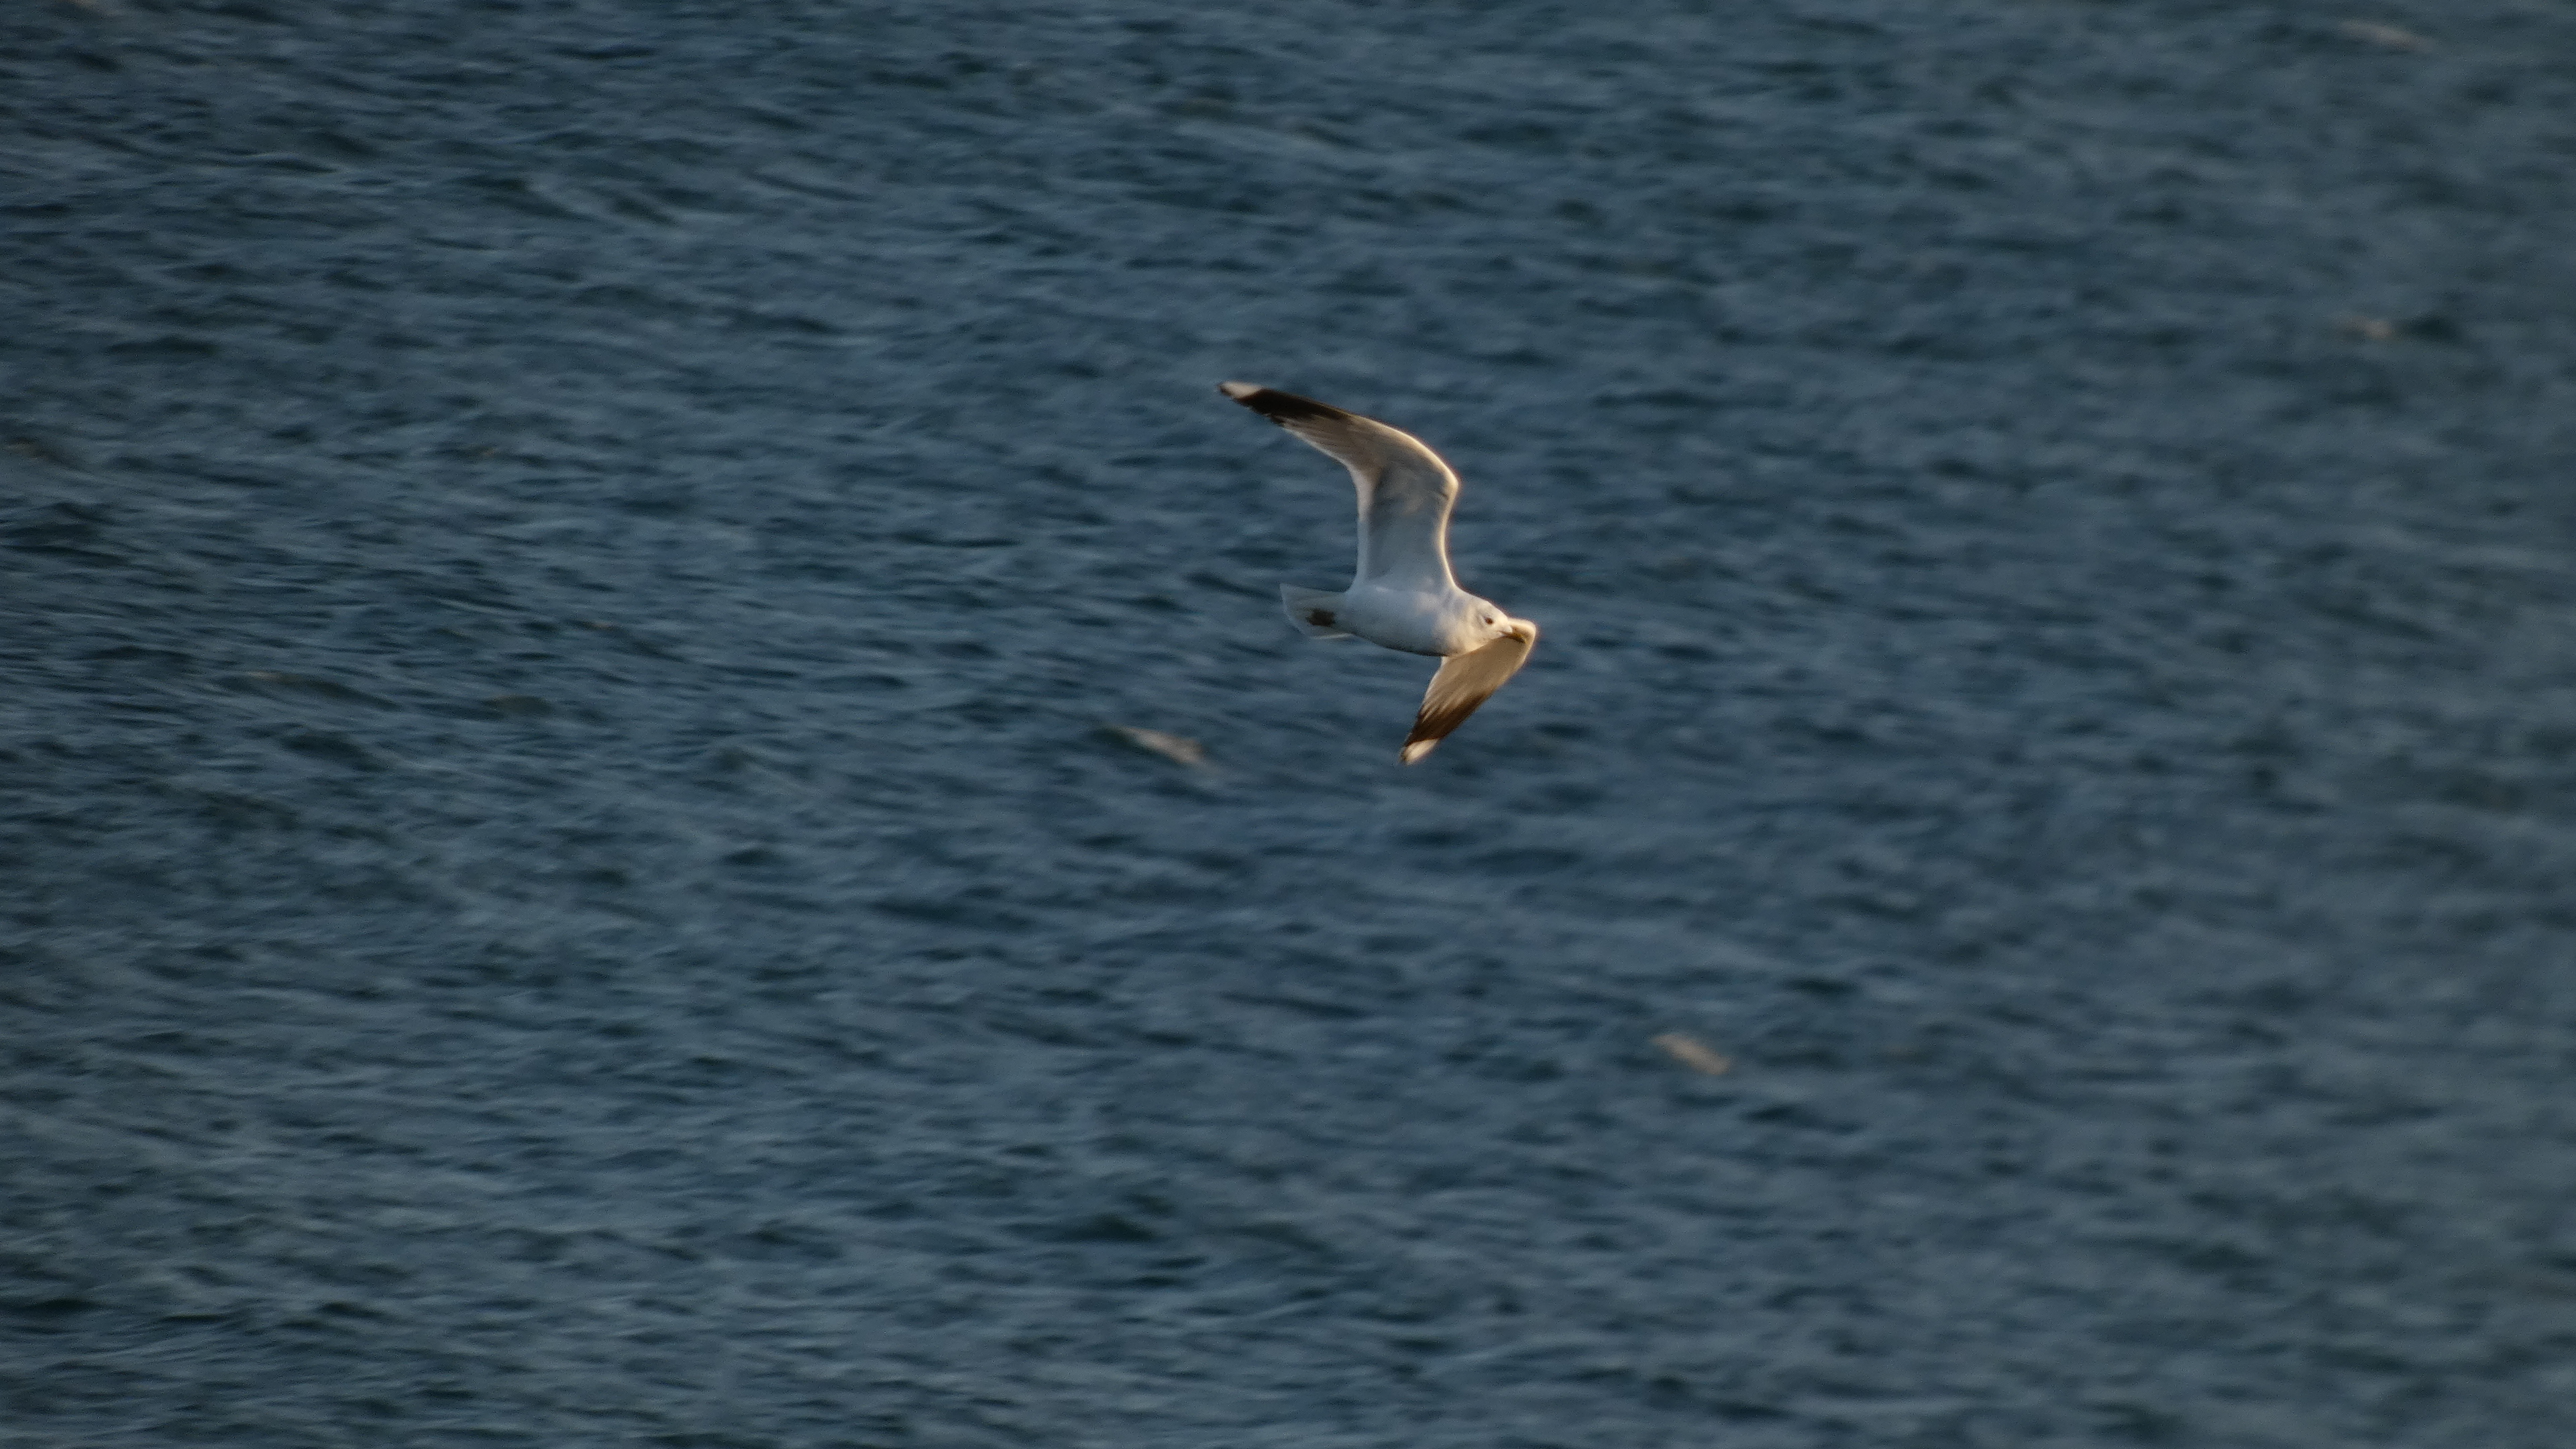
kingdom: Animalia
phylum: Chordata
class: Aves
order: Charadriiformes
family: Laridae
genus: Larus
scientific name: Larus canus
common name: Stormmåge
